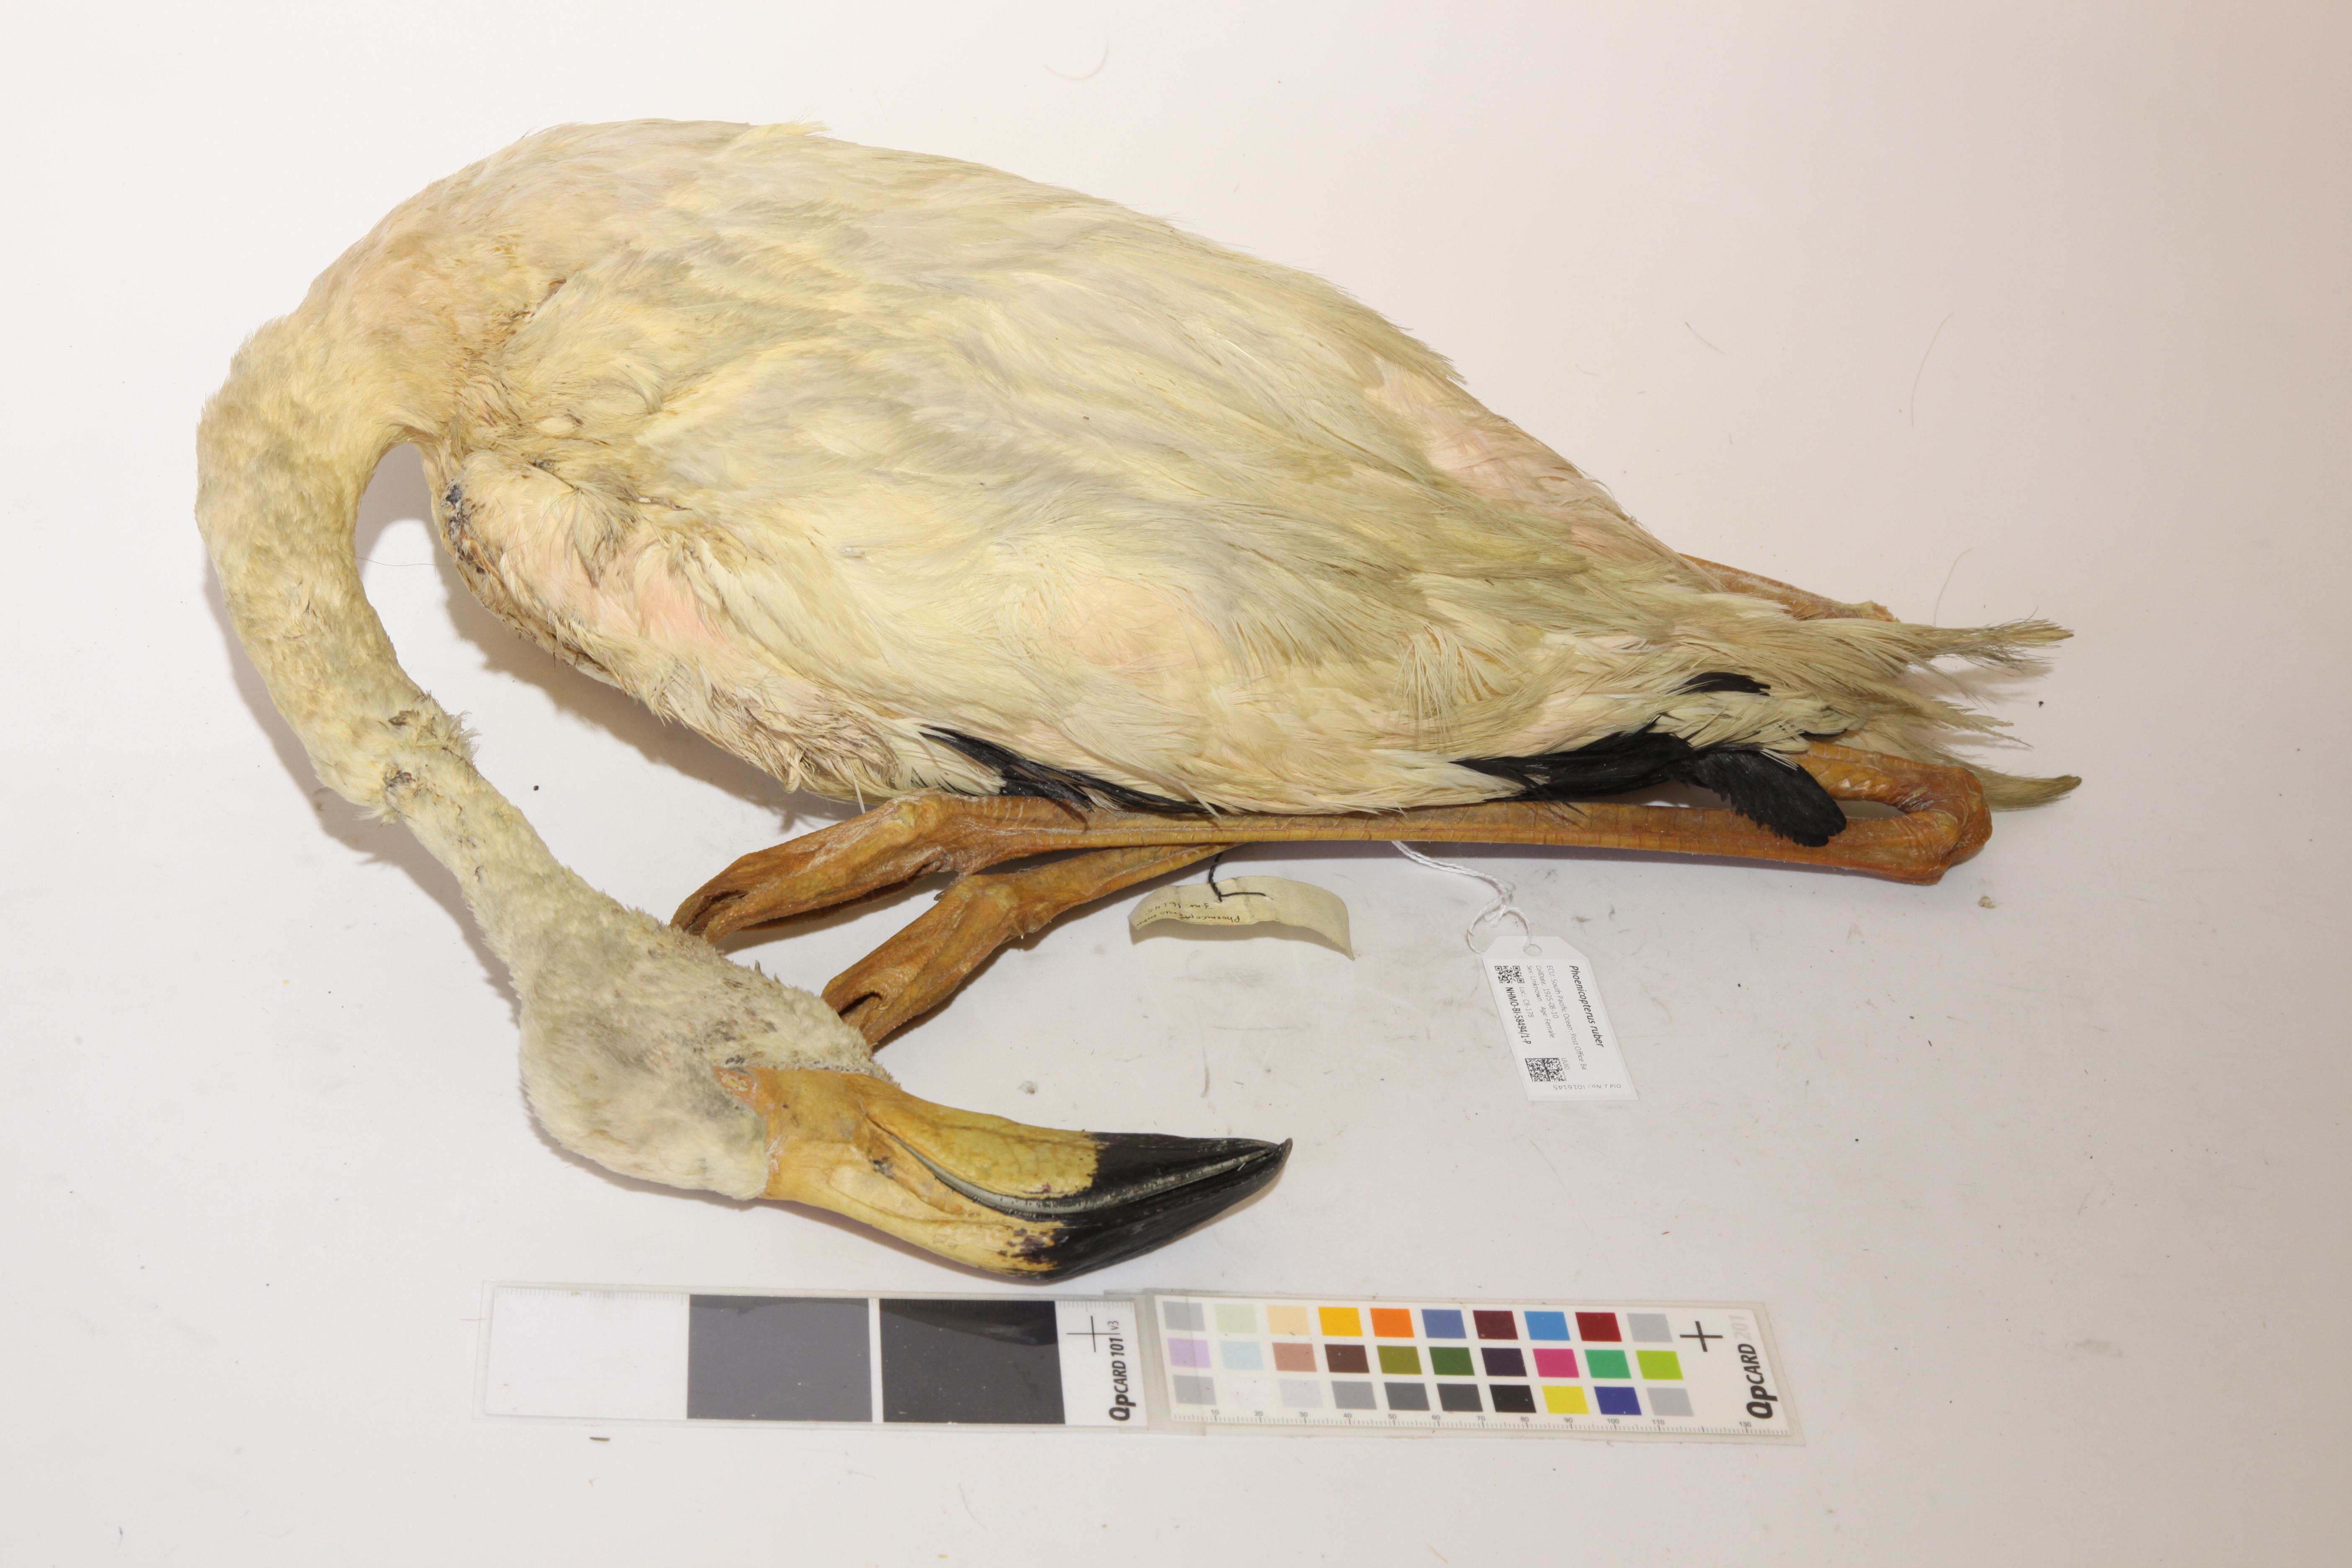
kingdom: Animalia
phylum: Chordata
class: Aves
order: Phoenicopteriformes
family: Phoenicopteridae
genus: Phoenicopterus
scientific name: Phoenicopterus ruber
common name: American flamingo
